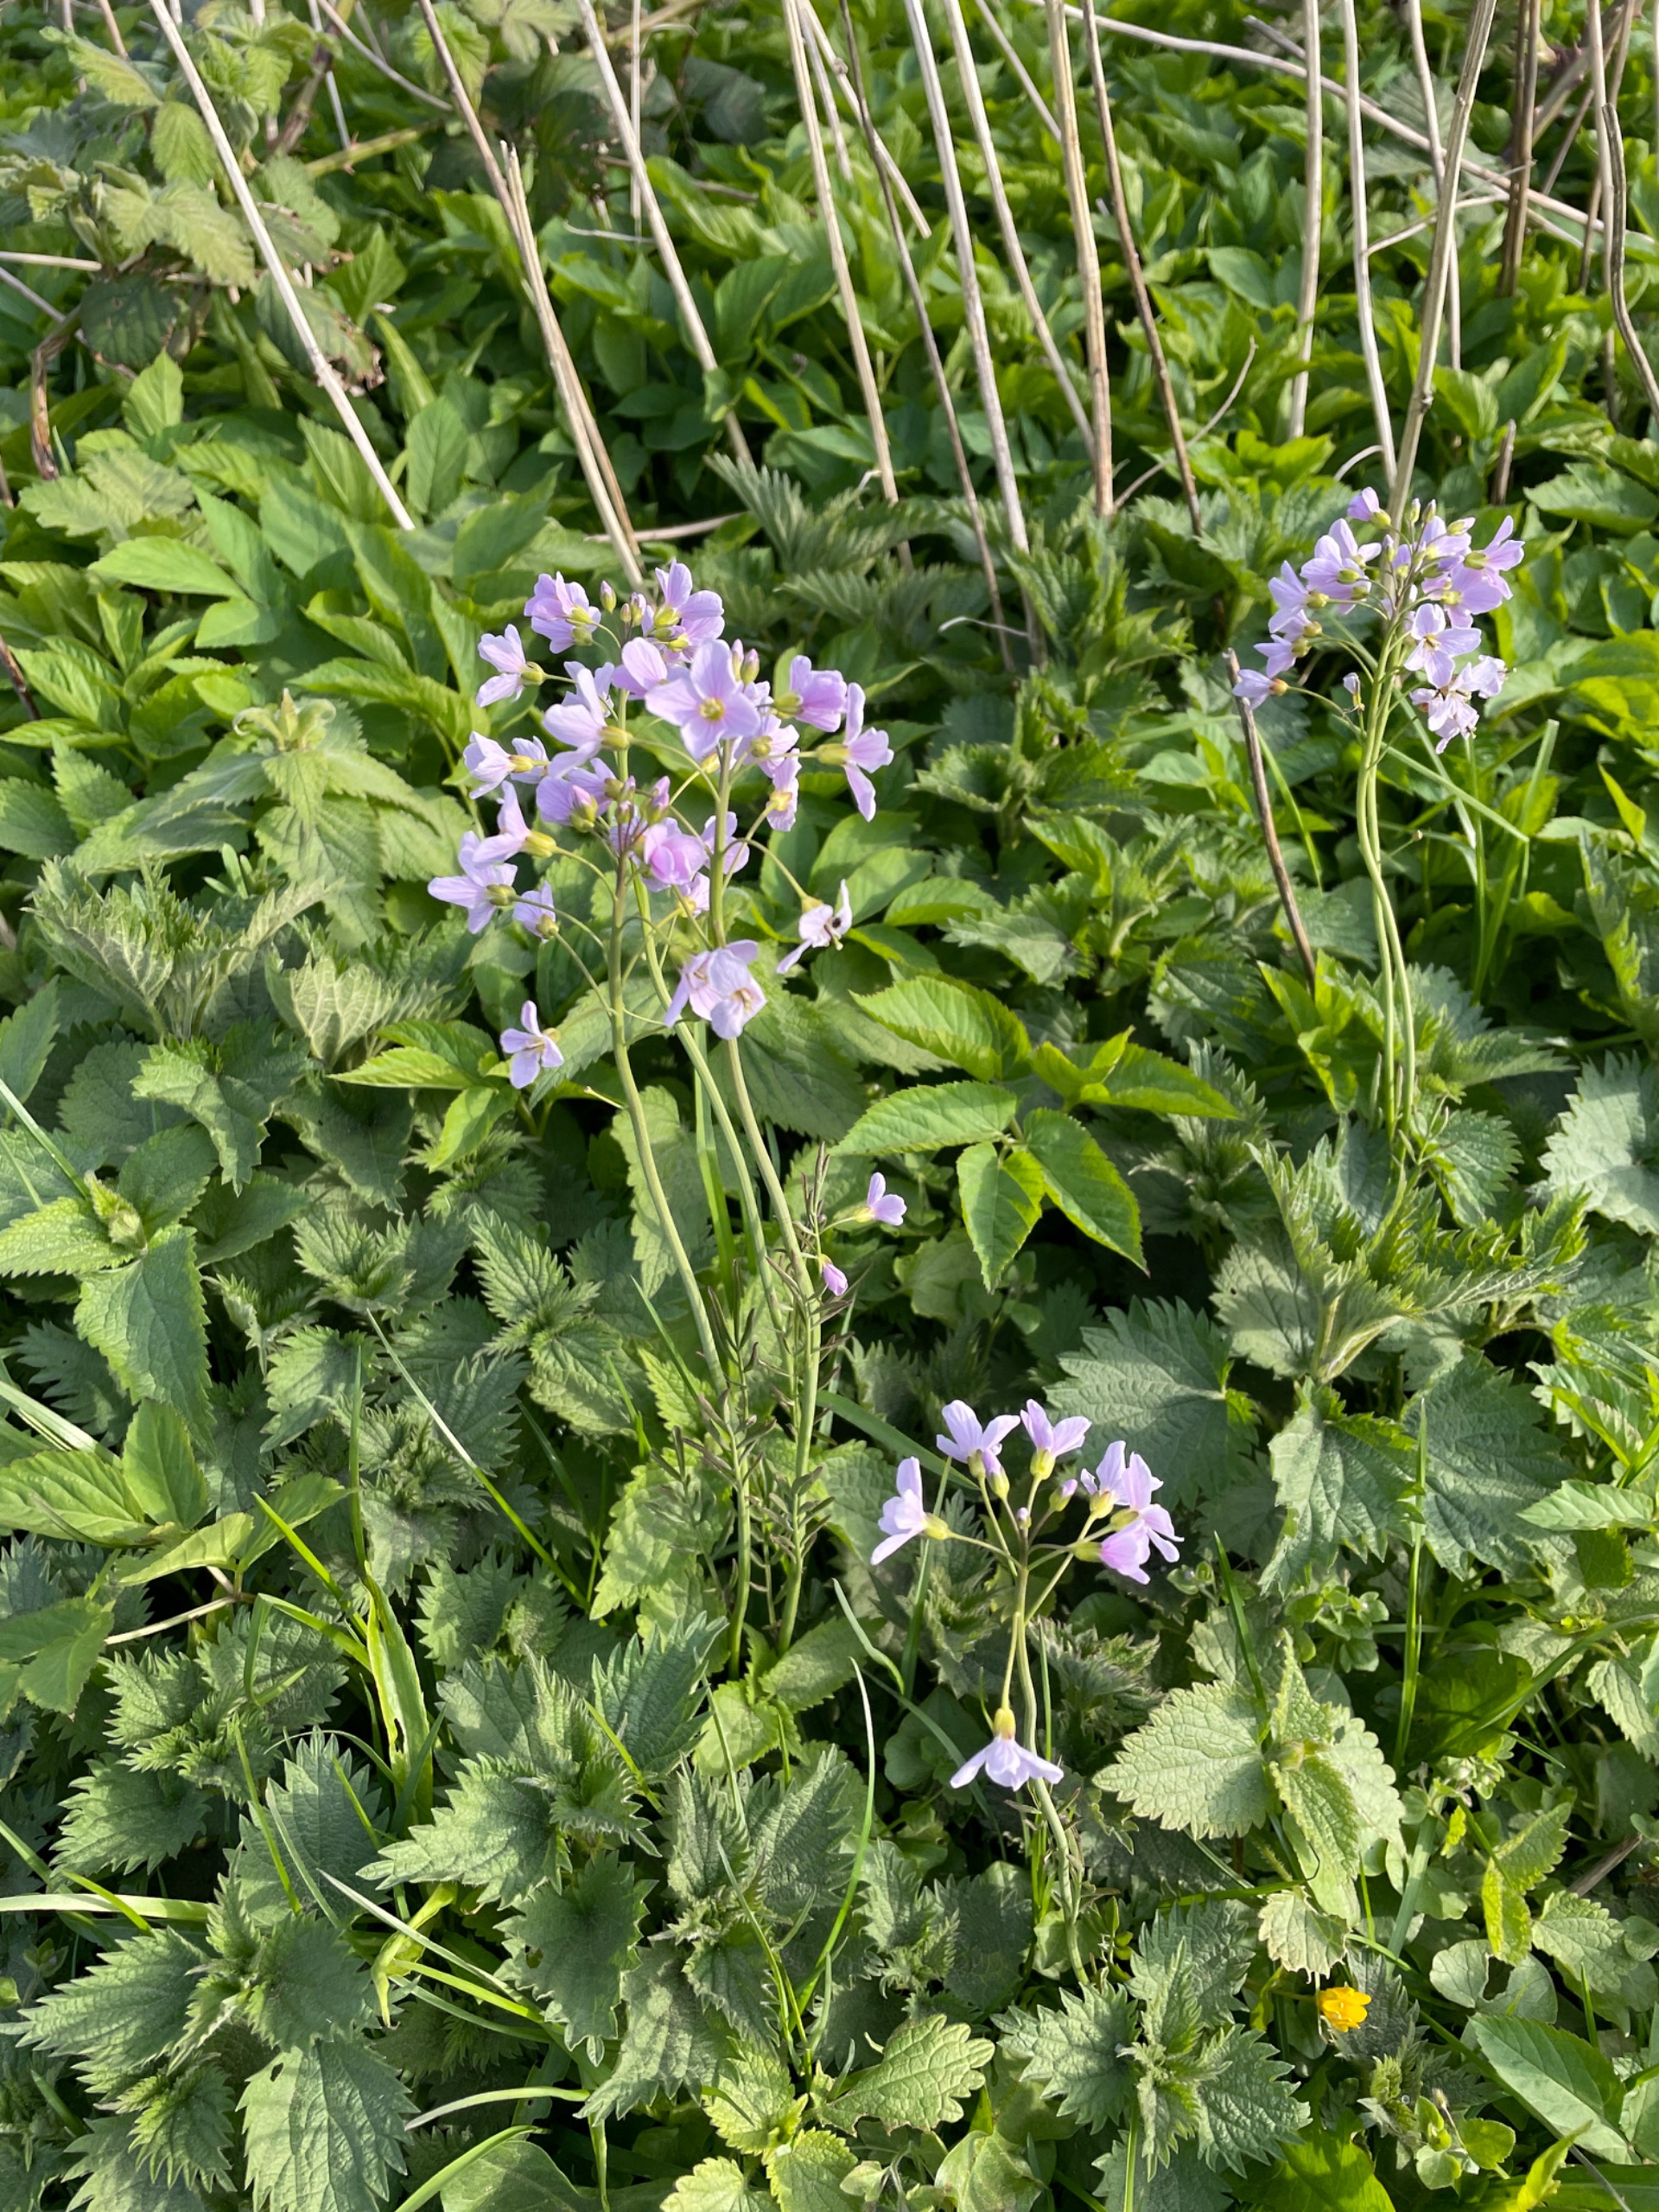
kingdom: Plantae
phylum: Tracheophyta
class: Magnoliopsida
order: Brassicales
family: Brassicaceae
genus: Cardamine
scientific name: Cardamine pratensis
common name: Engkarse
